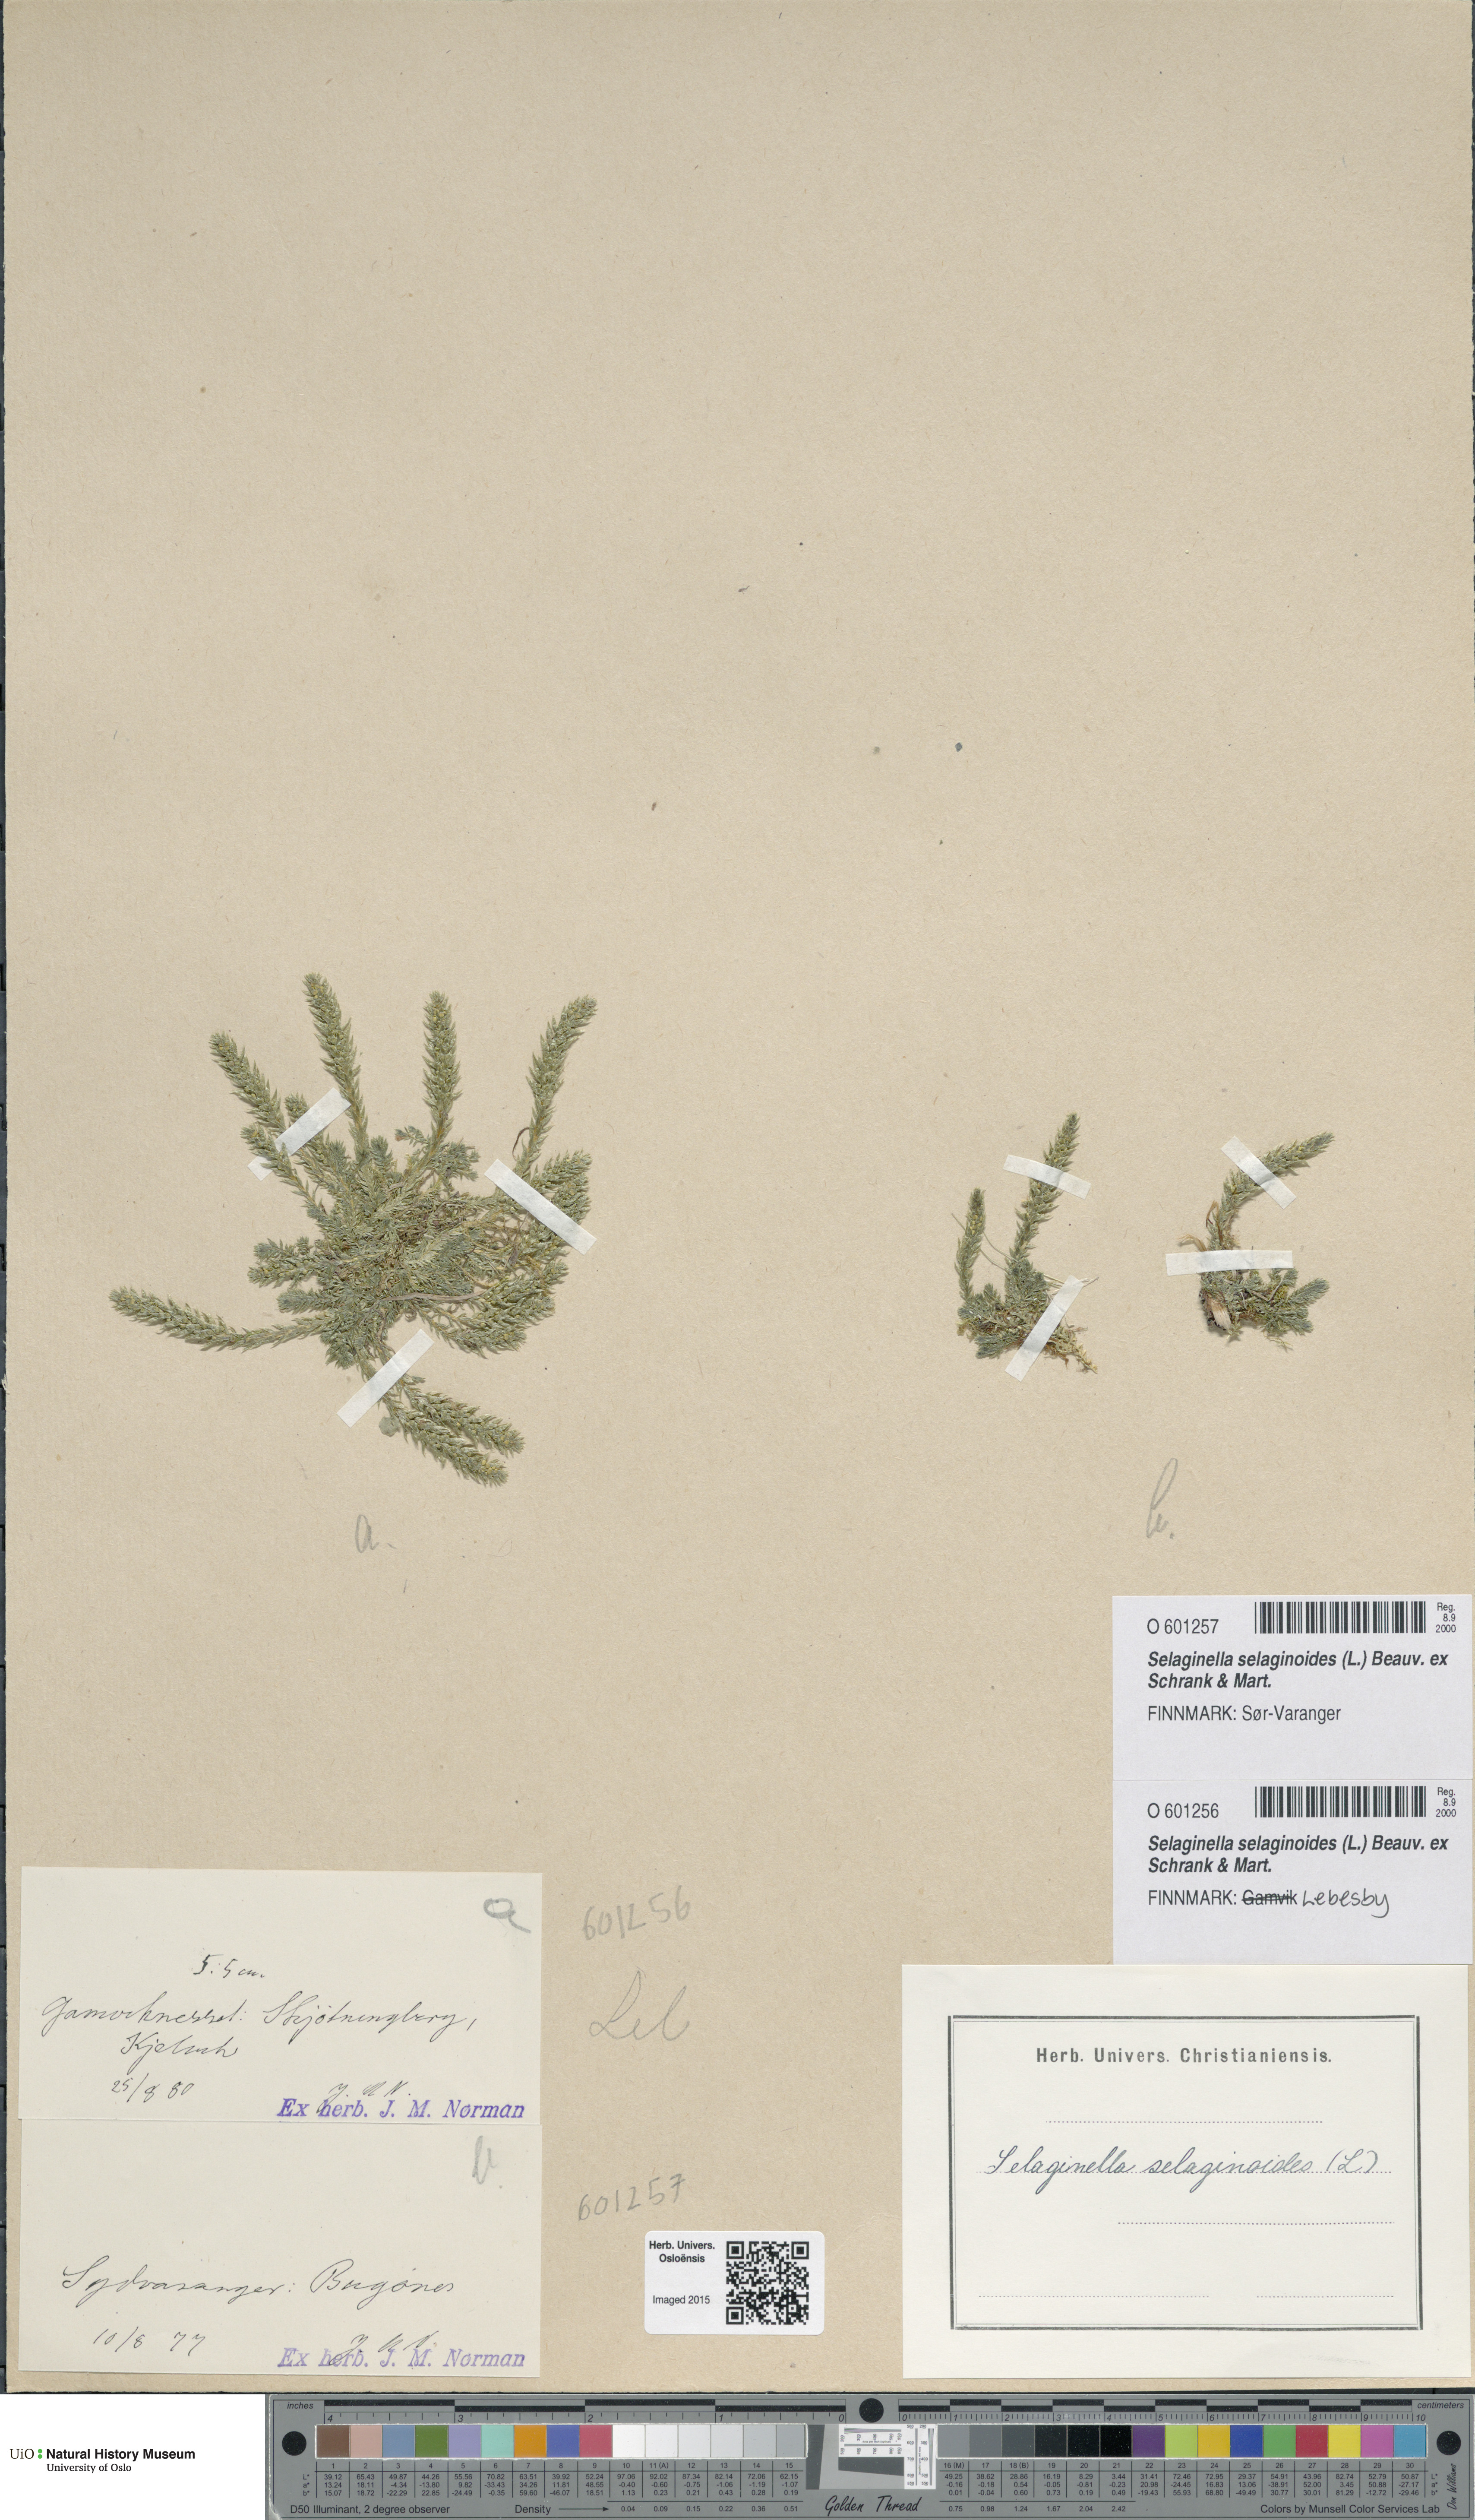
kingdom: Plantae
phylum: Tracheophyta
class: Lycopodiopsida
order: Selaginellales
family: Selaginellaceae
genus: Selaginella
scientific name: Selaginella selaginoides
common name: Prickly mountain-moss
